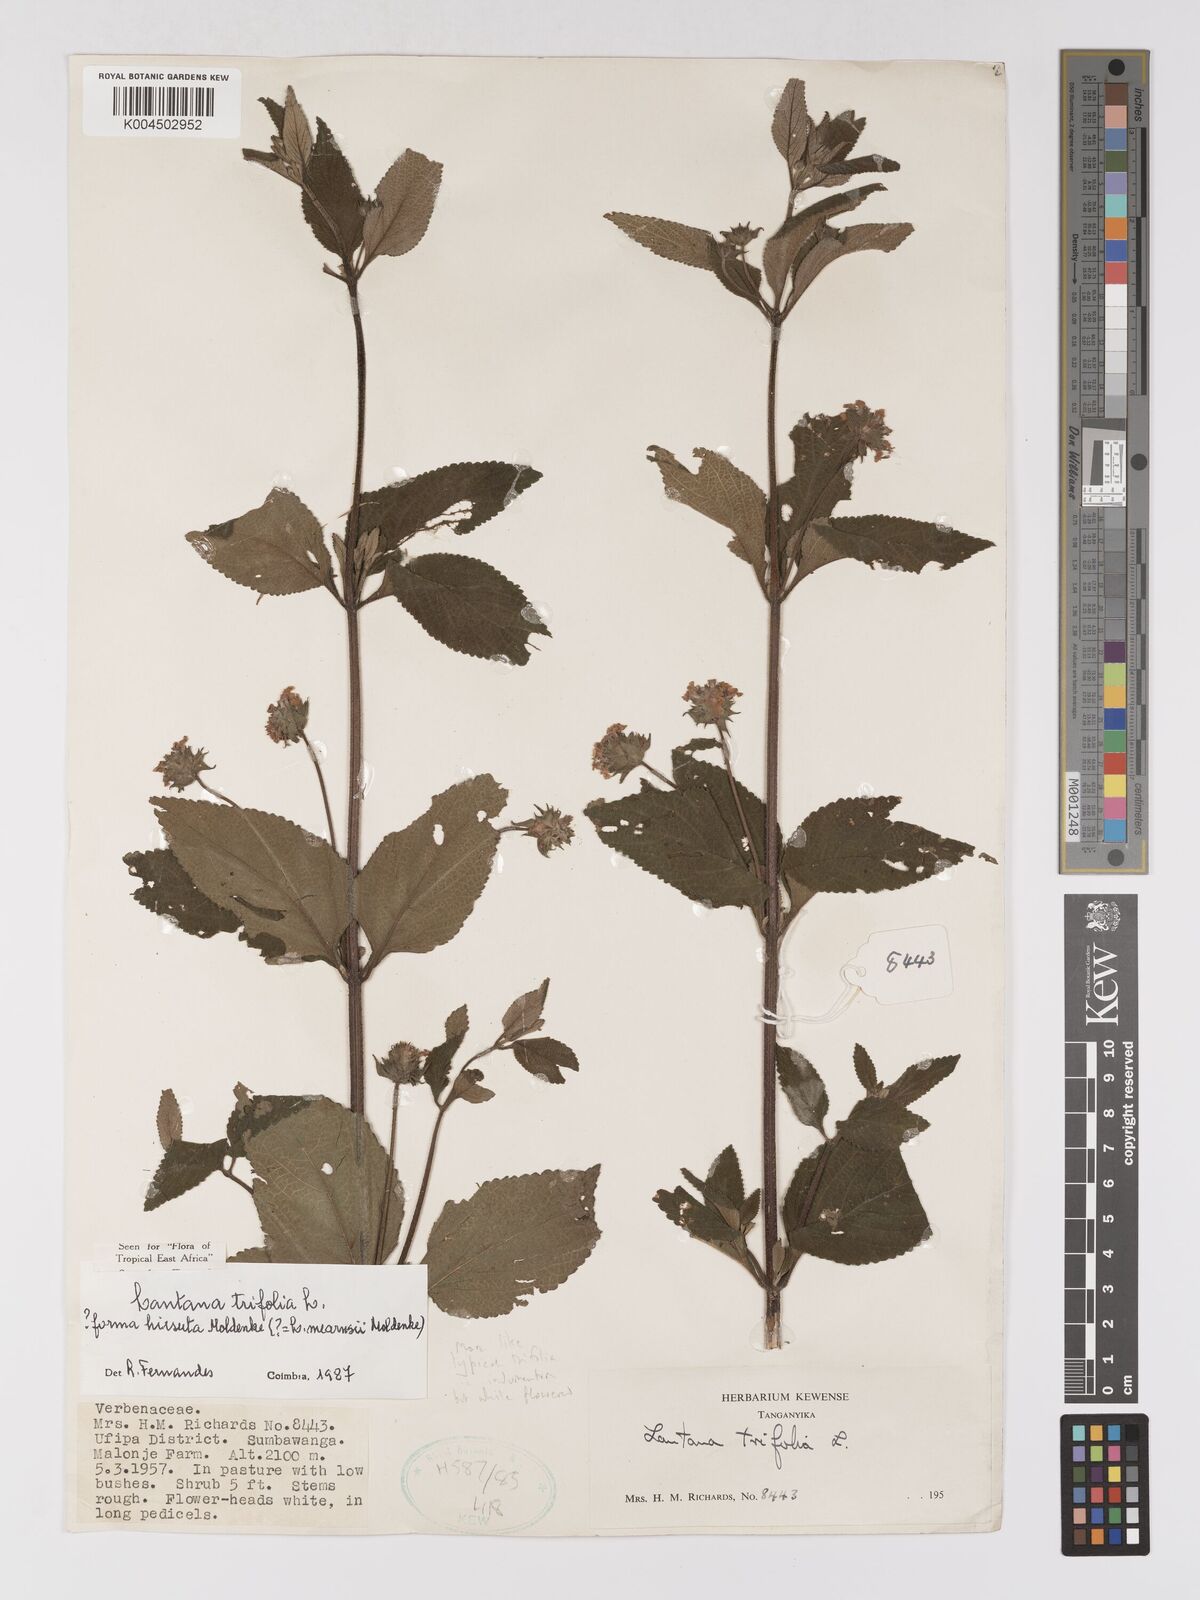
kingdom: Plantae
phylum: Tracheophyta
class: Magnoliopsida
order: Lamiales
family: Verbenaceae
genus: Lantana
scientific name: Lantana trifolia
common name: Sweet-sage
